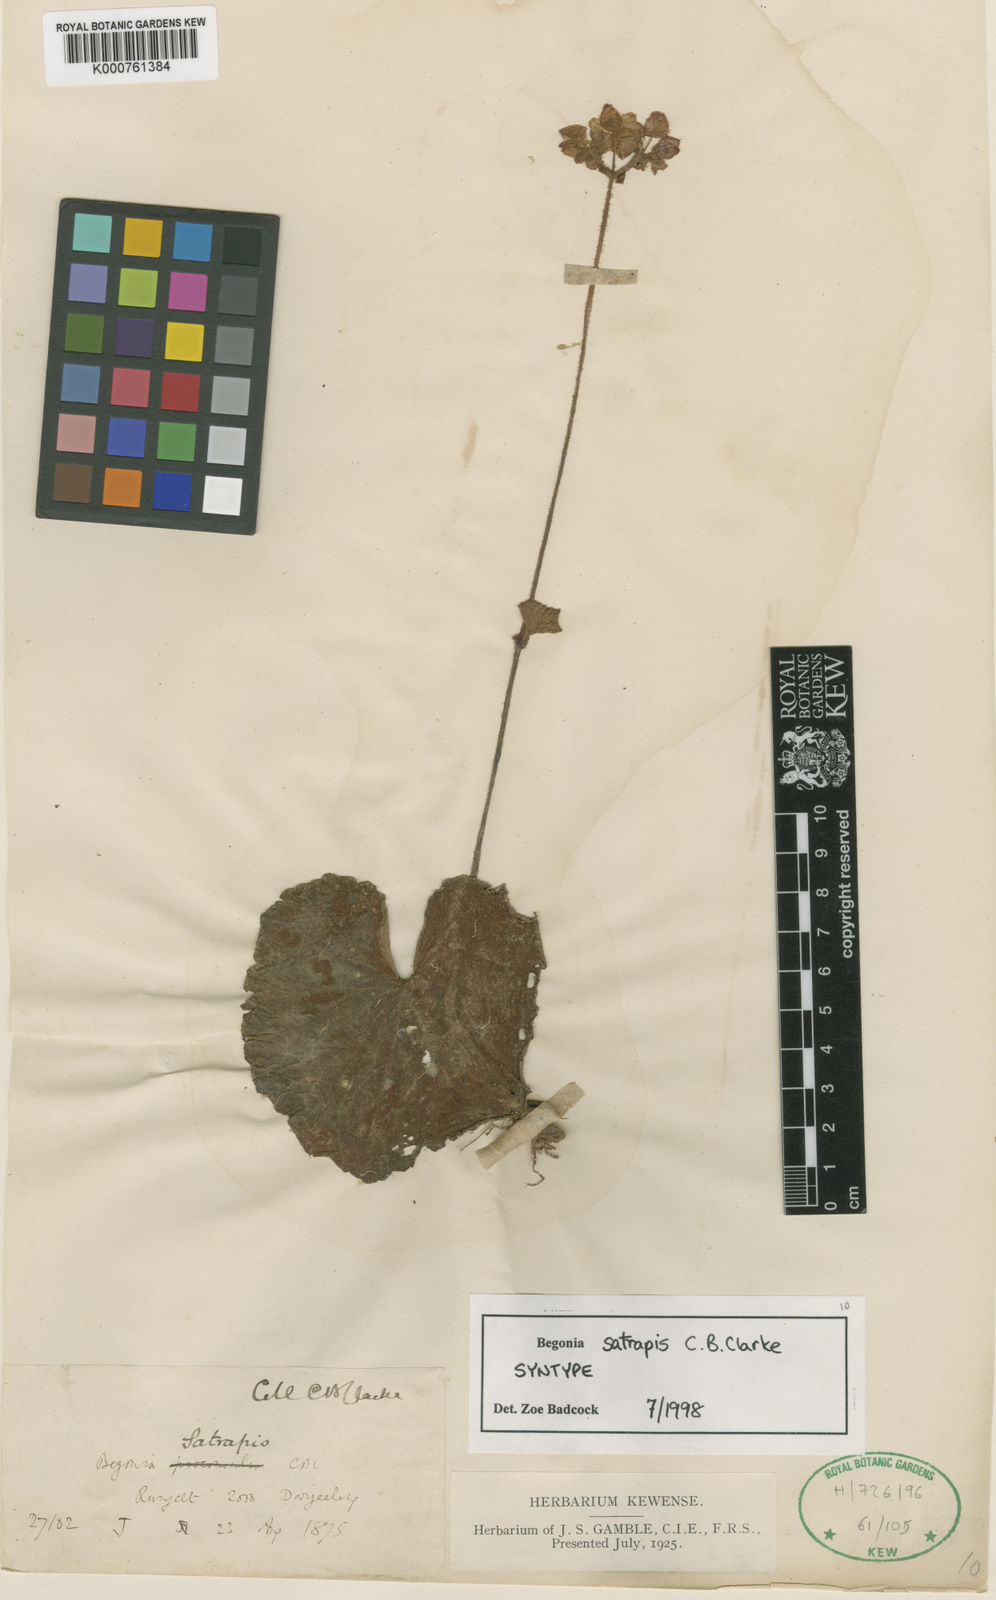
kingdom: Plantae
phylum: Tracheophyta
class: Magnoliopsida
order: Cucurbitales
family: Begoniaceae
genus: Begonia
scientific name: Begonia satrapis
